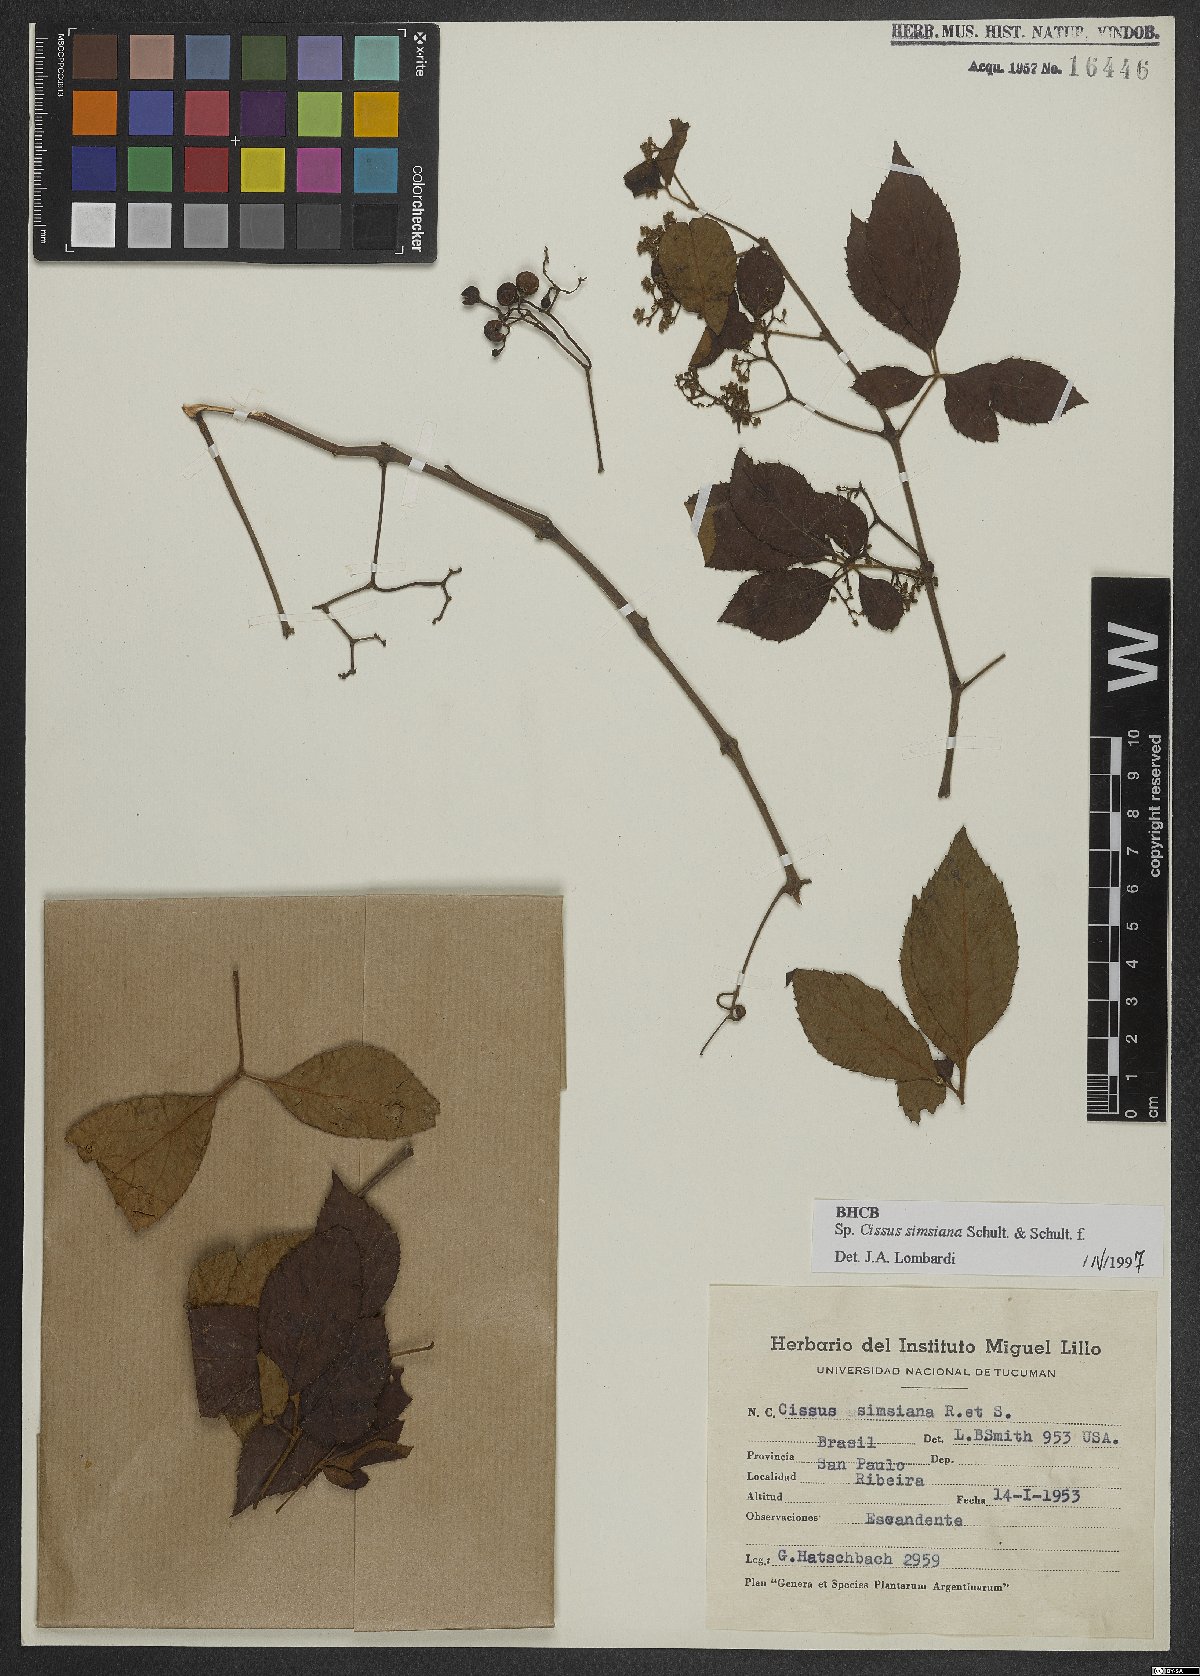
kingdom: Plantae
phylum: Tracheophyta
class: Magnoliopsida
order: Vitales
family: Vitaceae
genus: Clematicissus
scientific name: Clematicissus simsiana
